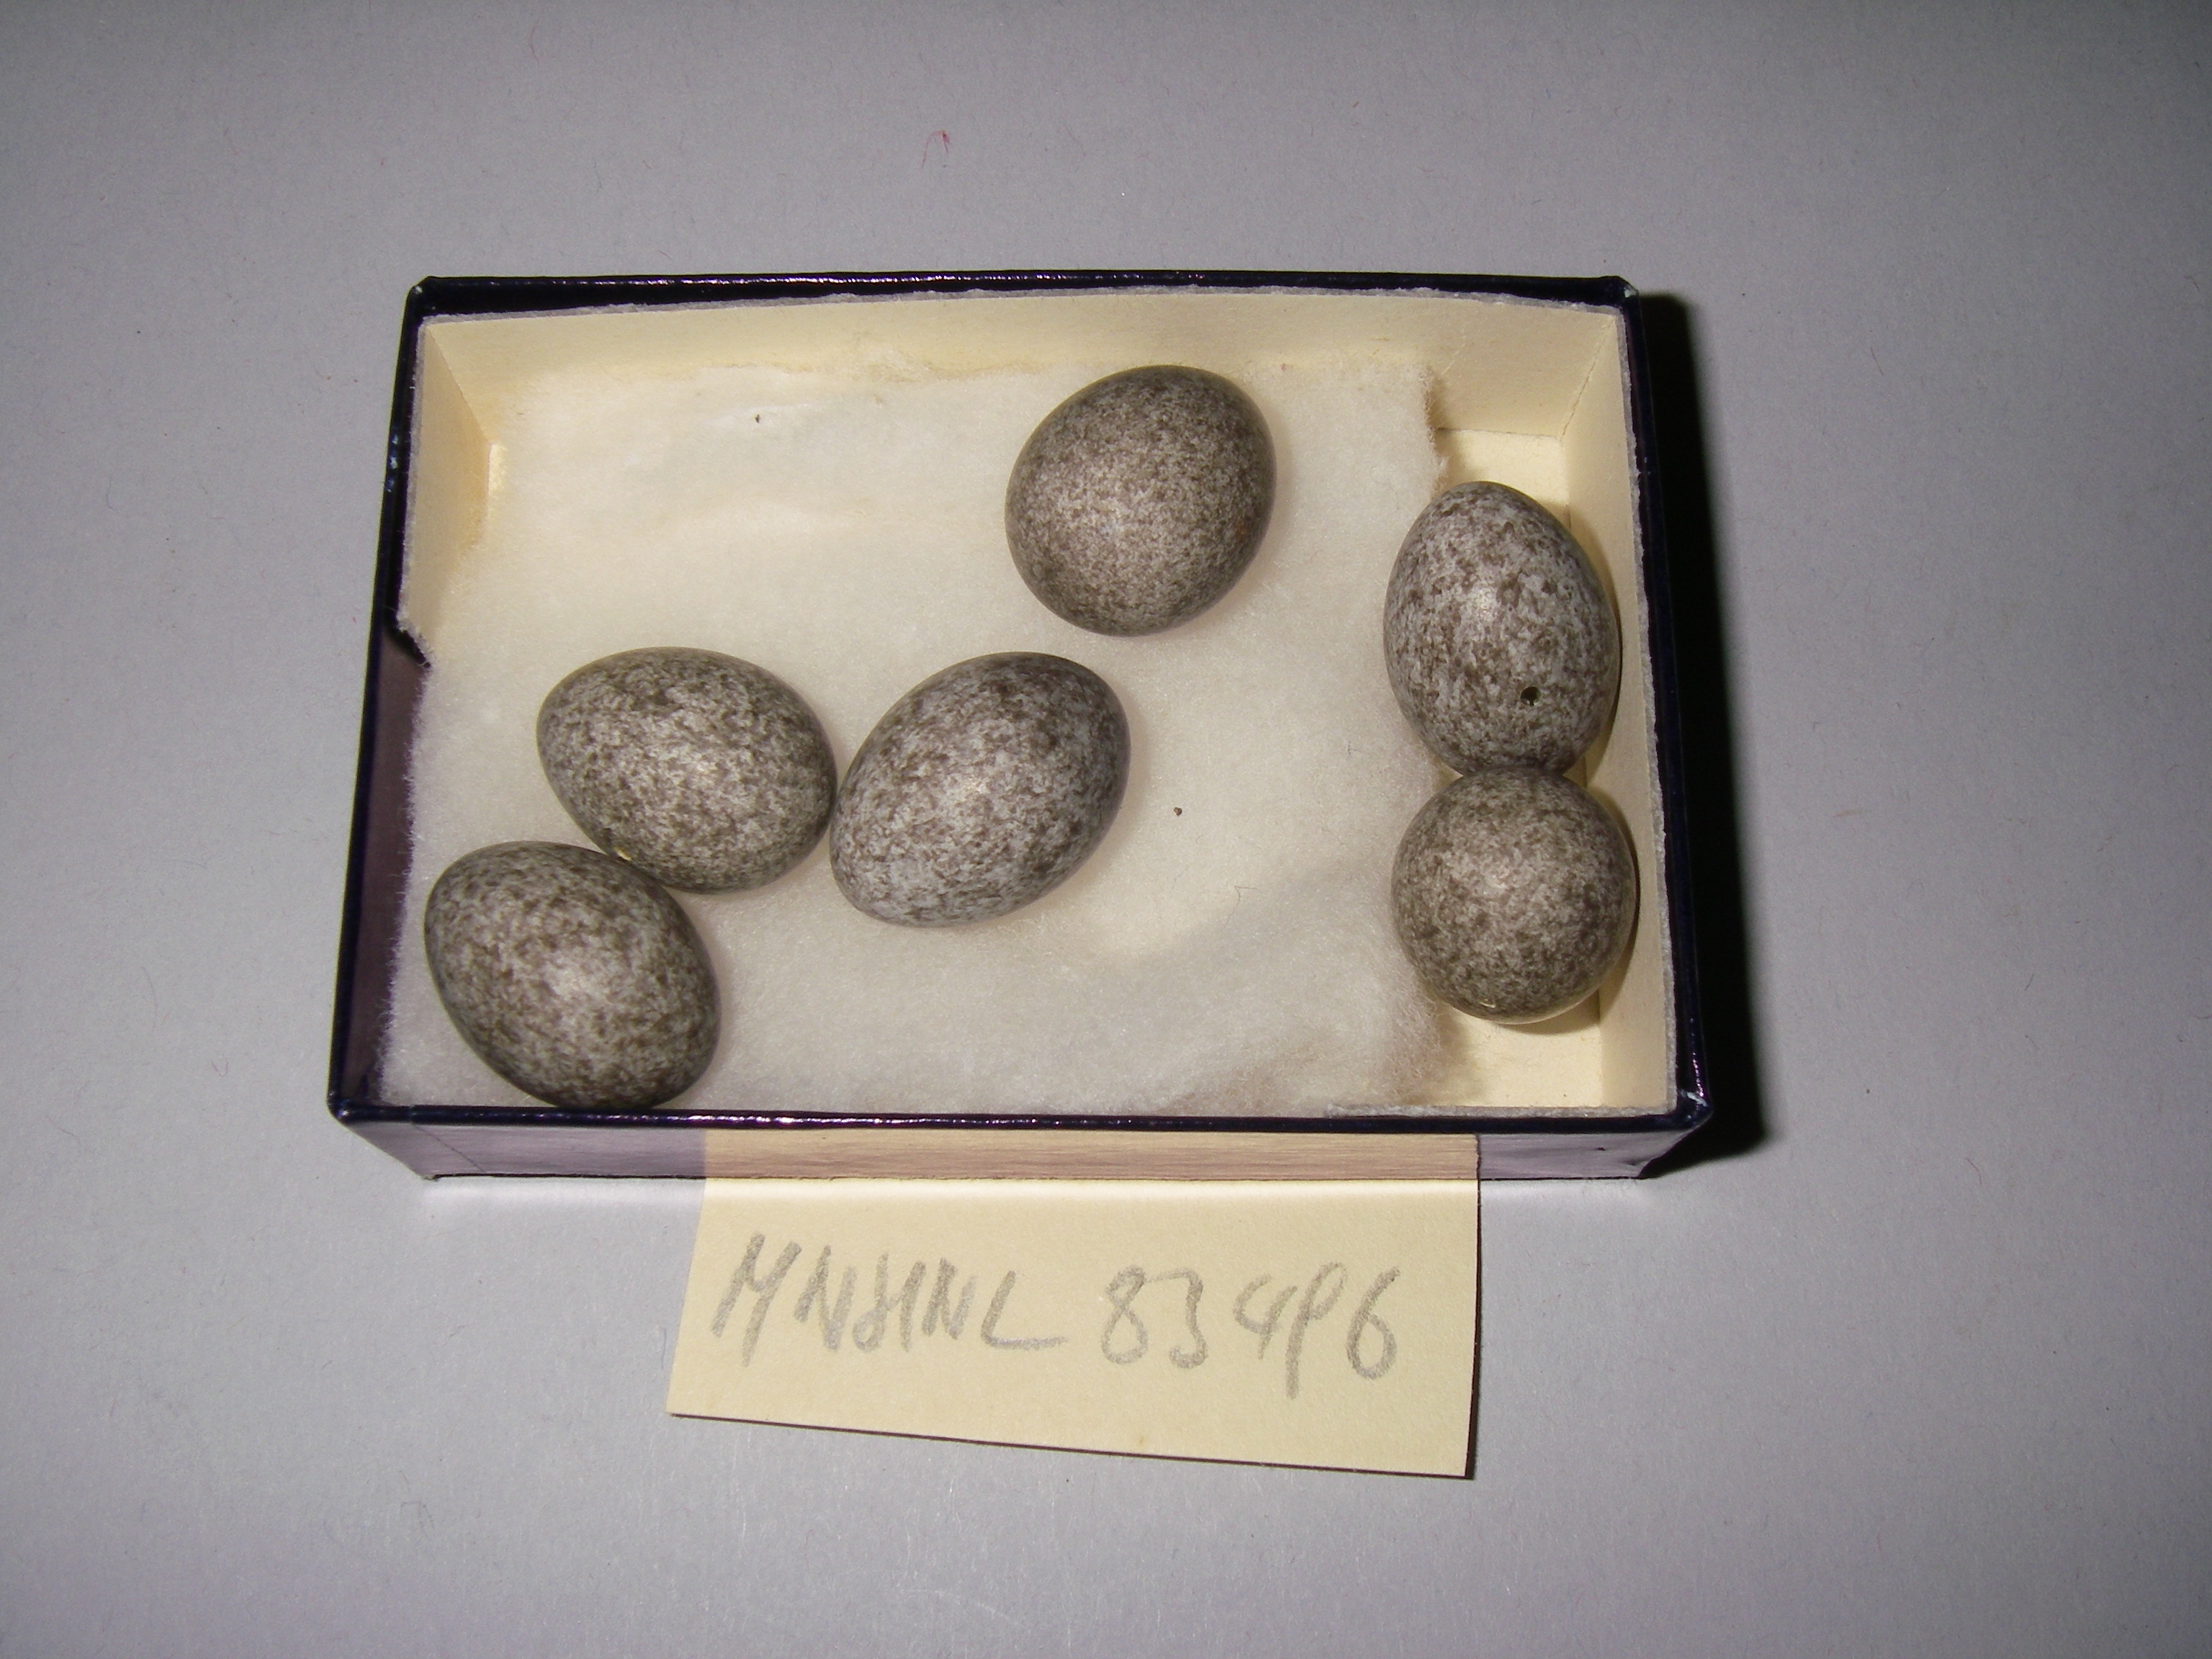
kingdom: Animalia
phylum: Chordata
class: Aves
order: Passeriformes
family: Motacillidae
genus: Anthus
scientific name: Anthus trivialis
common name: Tree pipit
